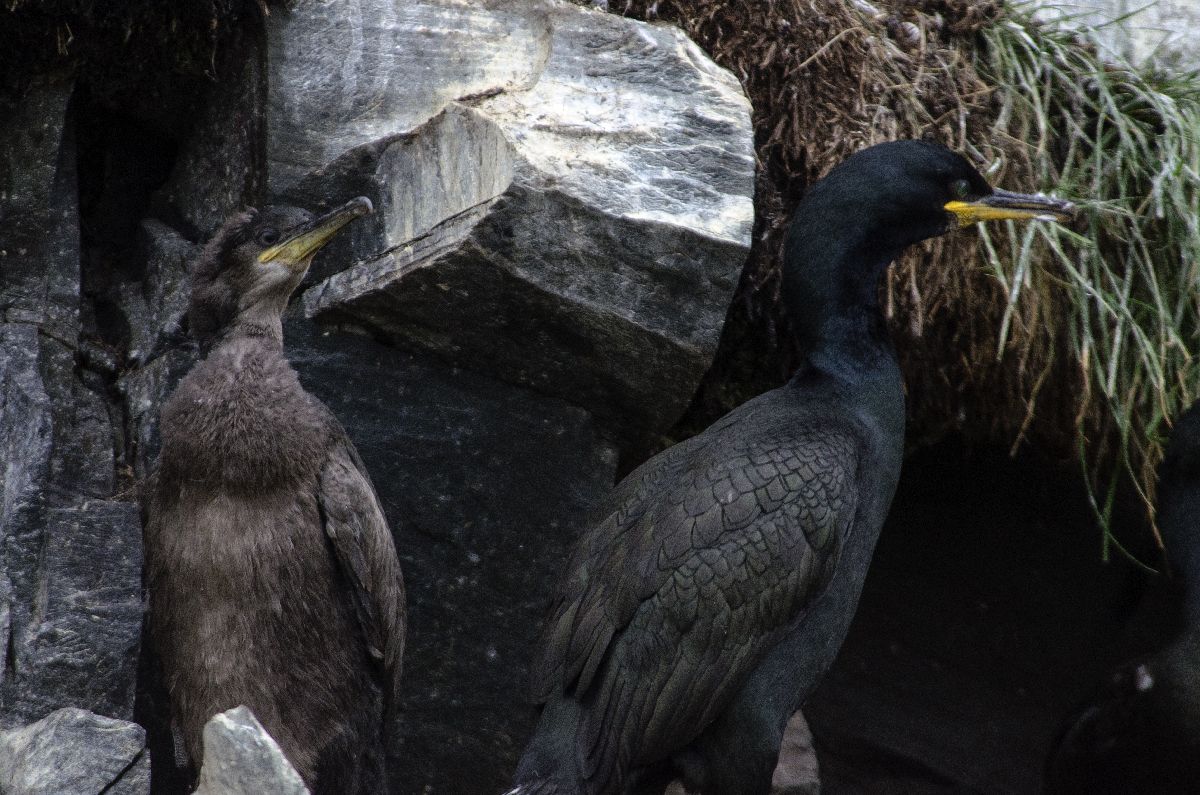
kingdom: Animalia
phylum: Chordata
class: Aves
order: Suliformes
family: Phalacrocoracidae
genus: Phalacrocorax
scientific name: Phalacrocorax aristotelis
